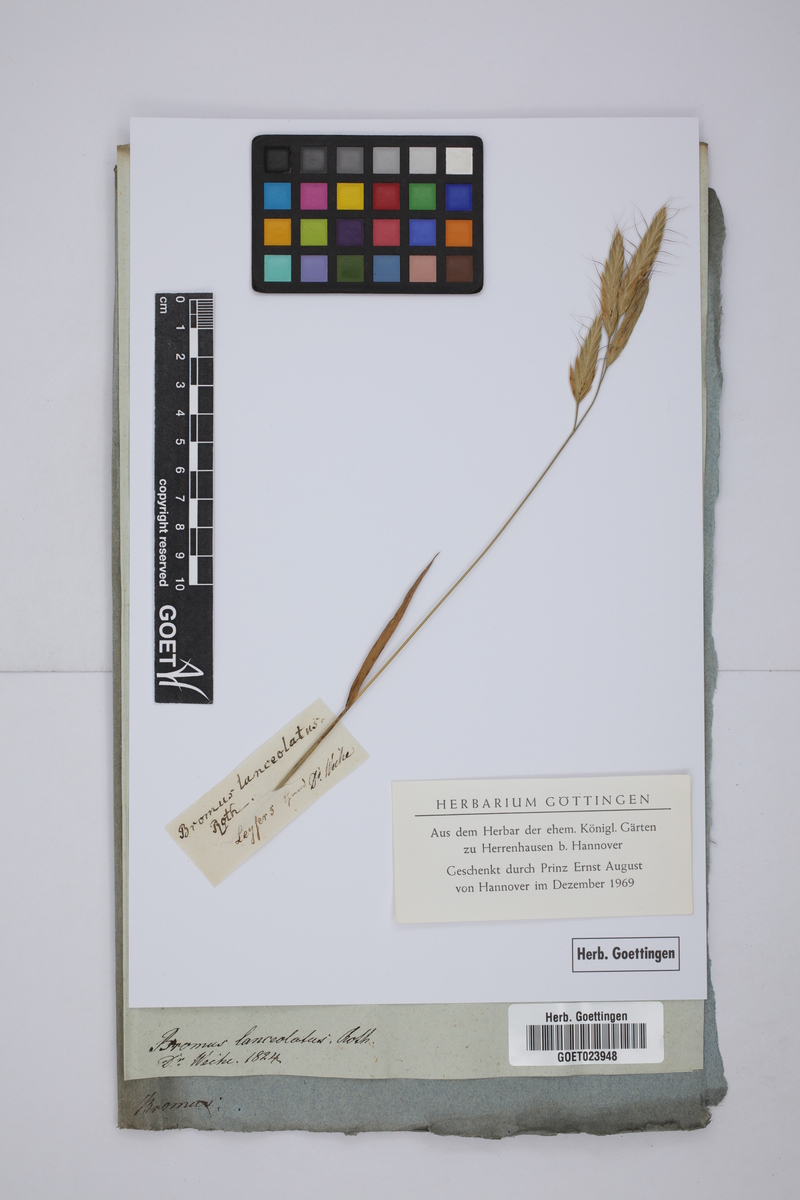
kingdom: Plantae
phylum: Tracheophyta
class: Liliopsida
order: Poales
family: Poaceae
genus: Bromus
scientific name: Bromus lanceolatus
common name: Mediterranean brome
